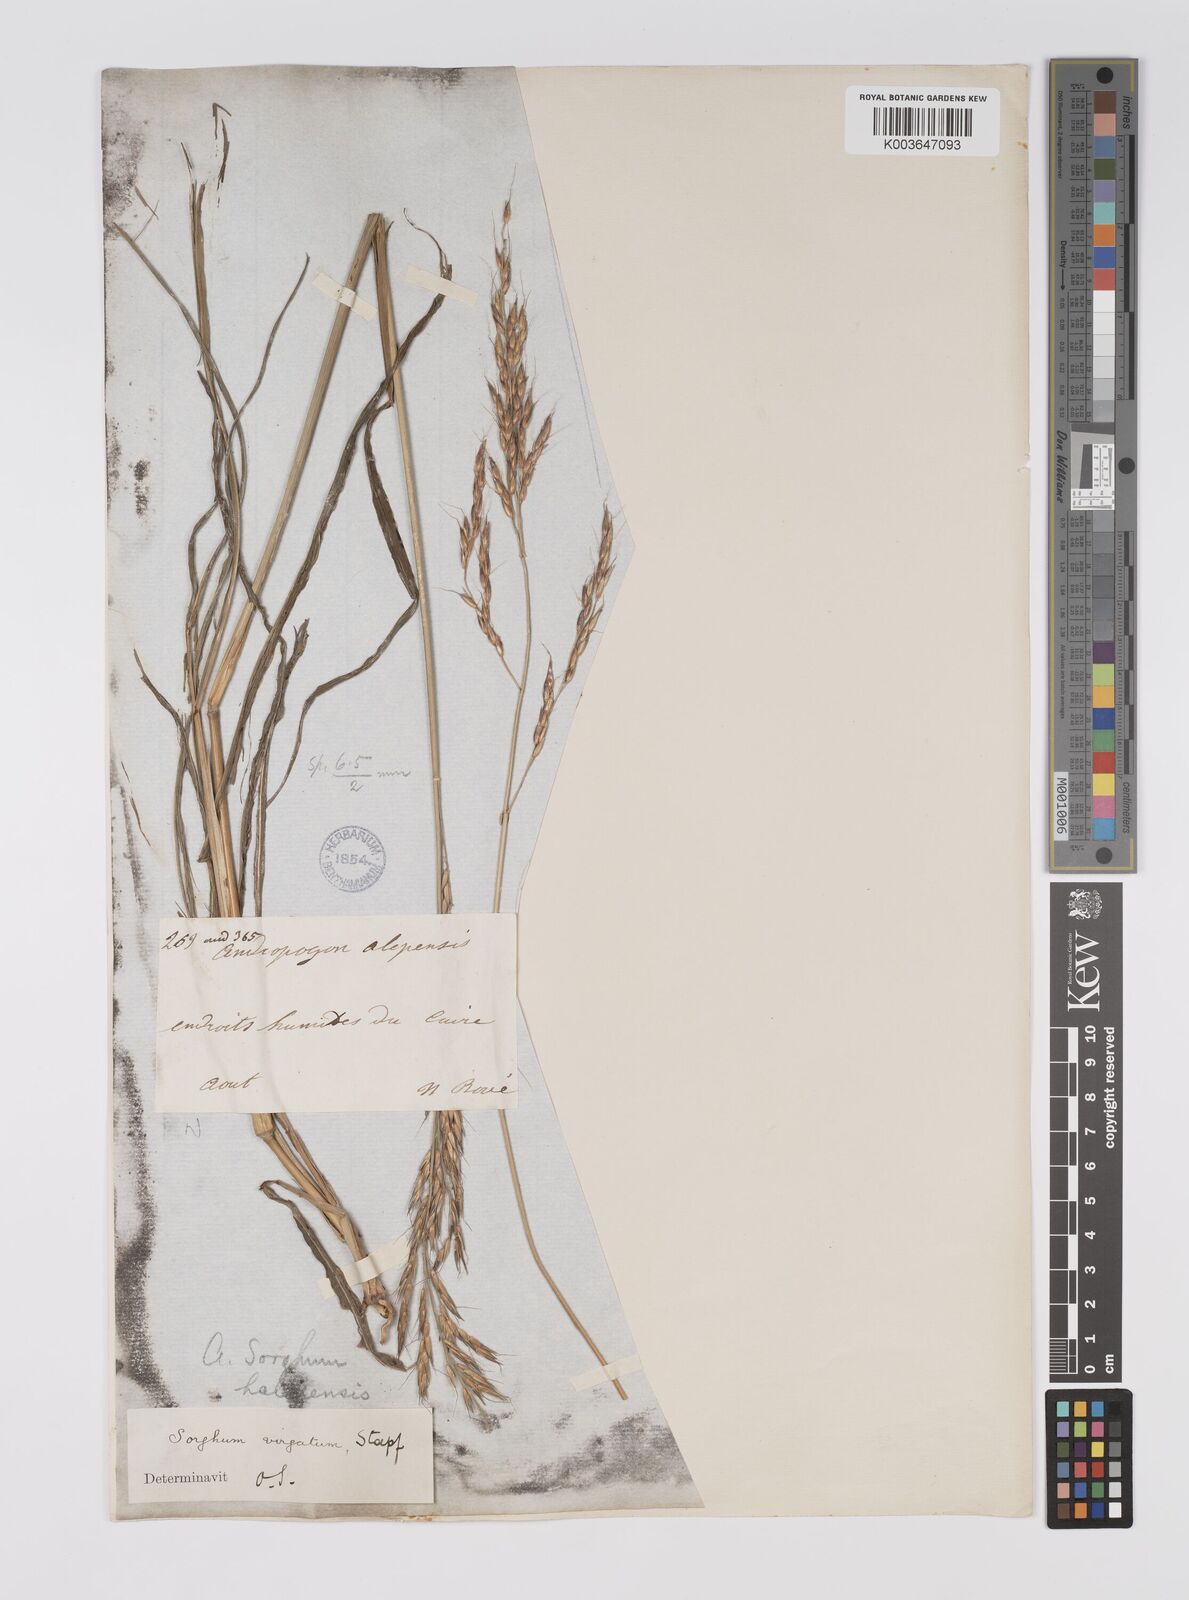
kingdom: Plantae
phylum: Tracheophyta
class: Liliopsida
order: Poales
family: Poaceae
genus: Sorghum
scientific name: Sorghum virgatum
